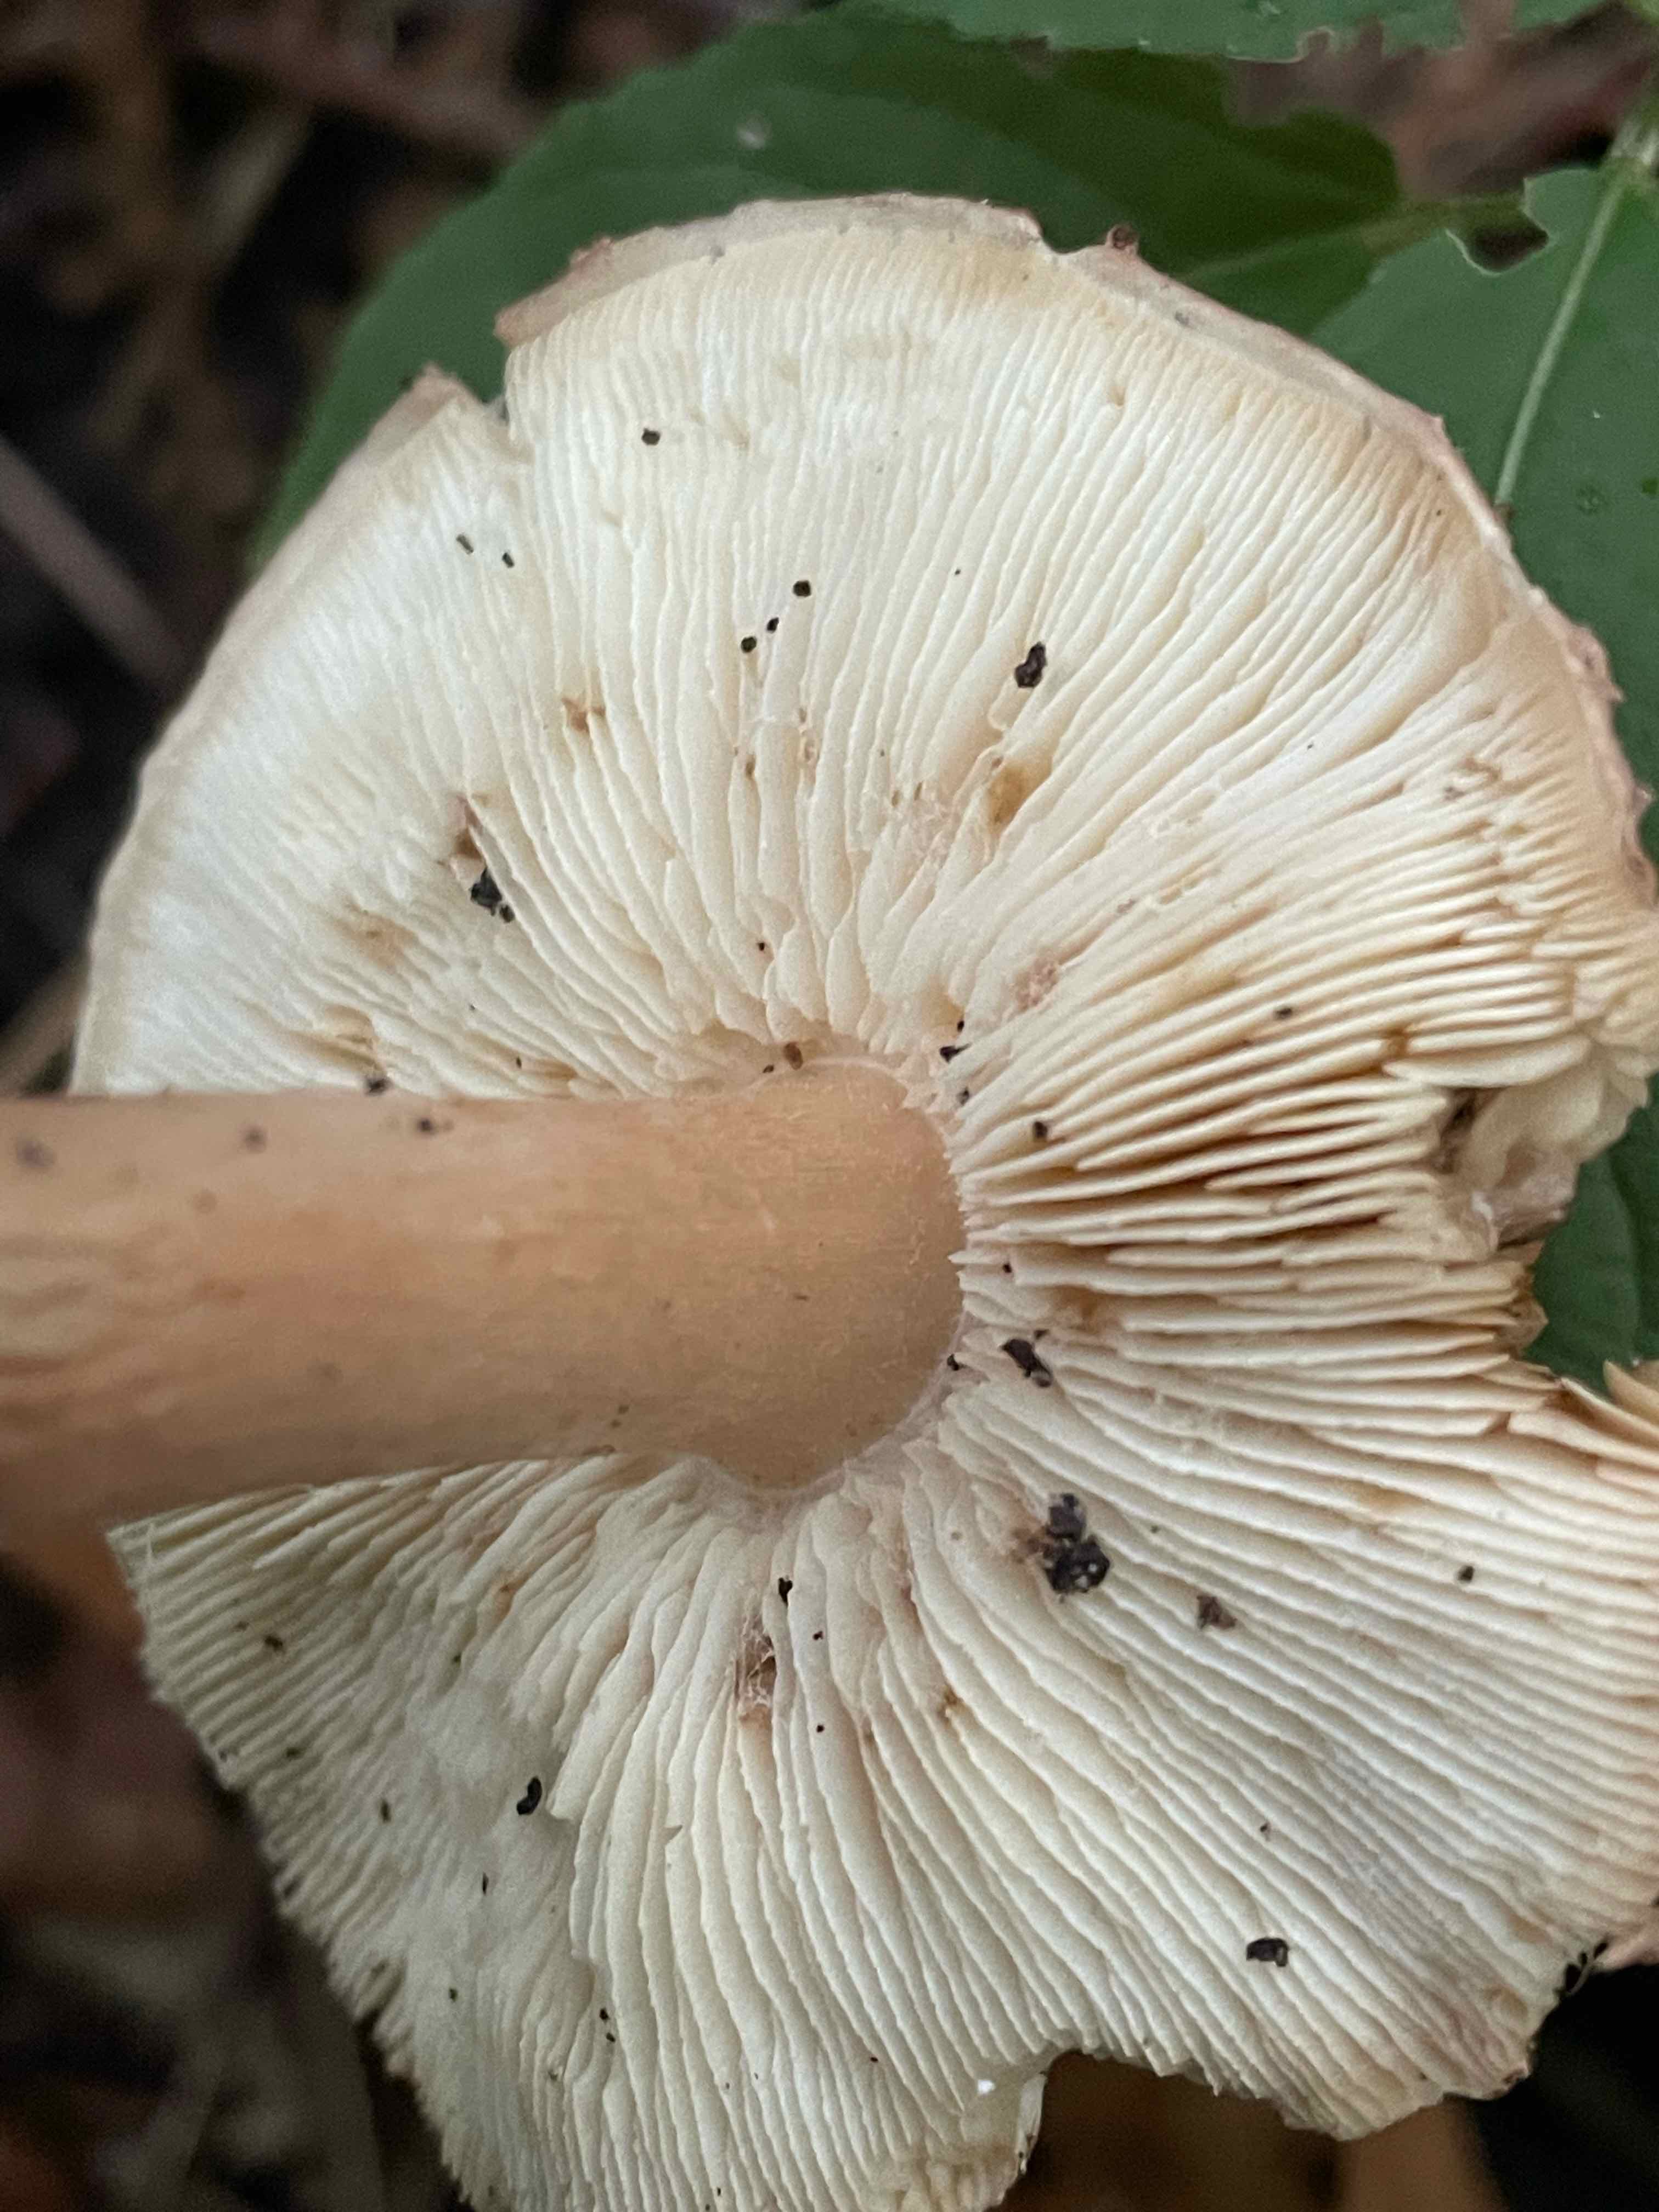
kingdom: Fungi
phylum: Basidiomycota
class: Agaricomycetes
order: Agaricales
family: Agaricaceae
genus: Echinoderma
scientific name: Echinoderma perplexum
